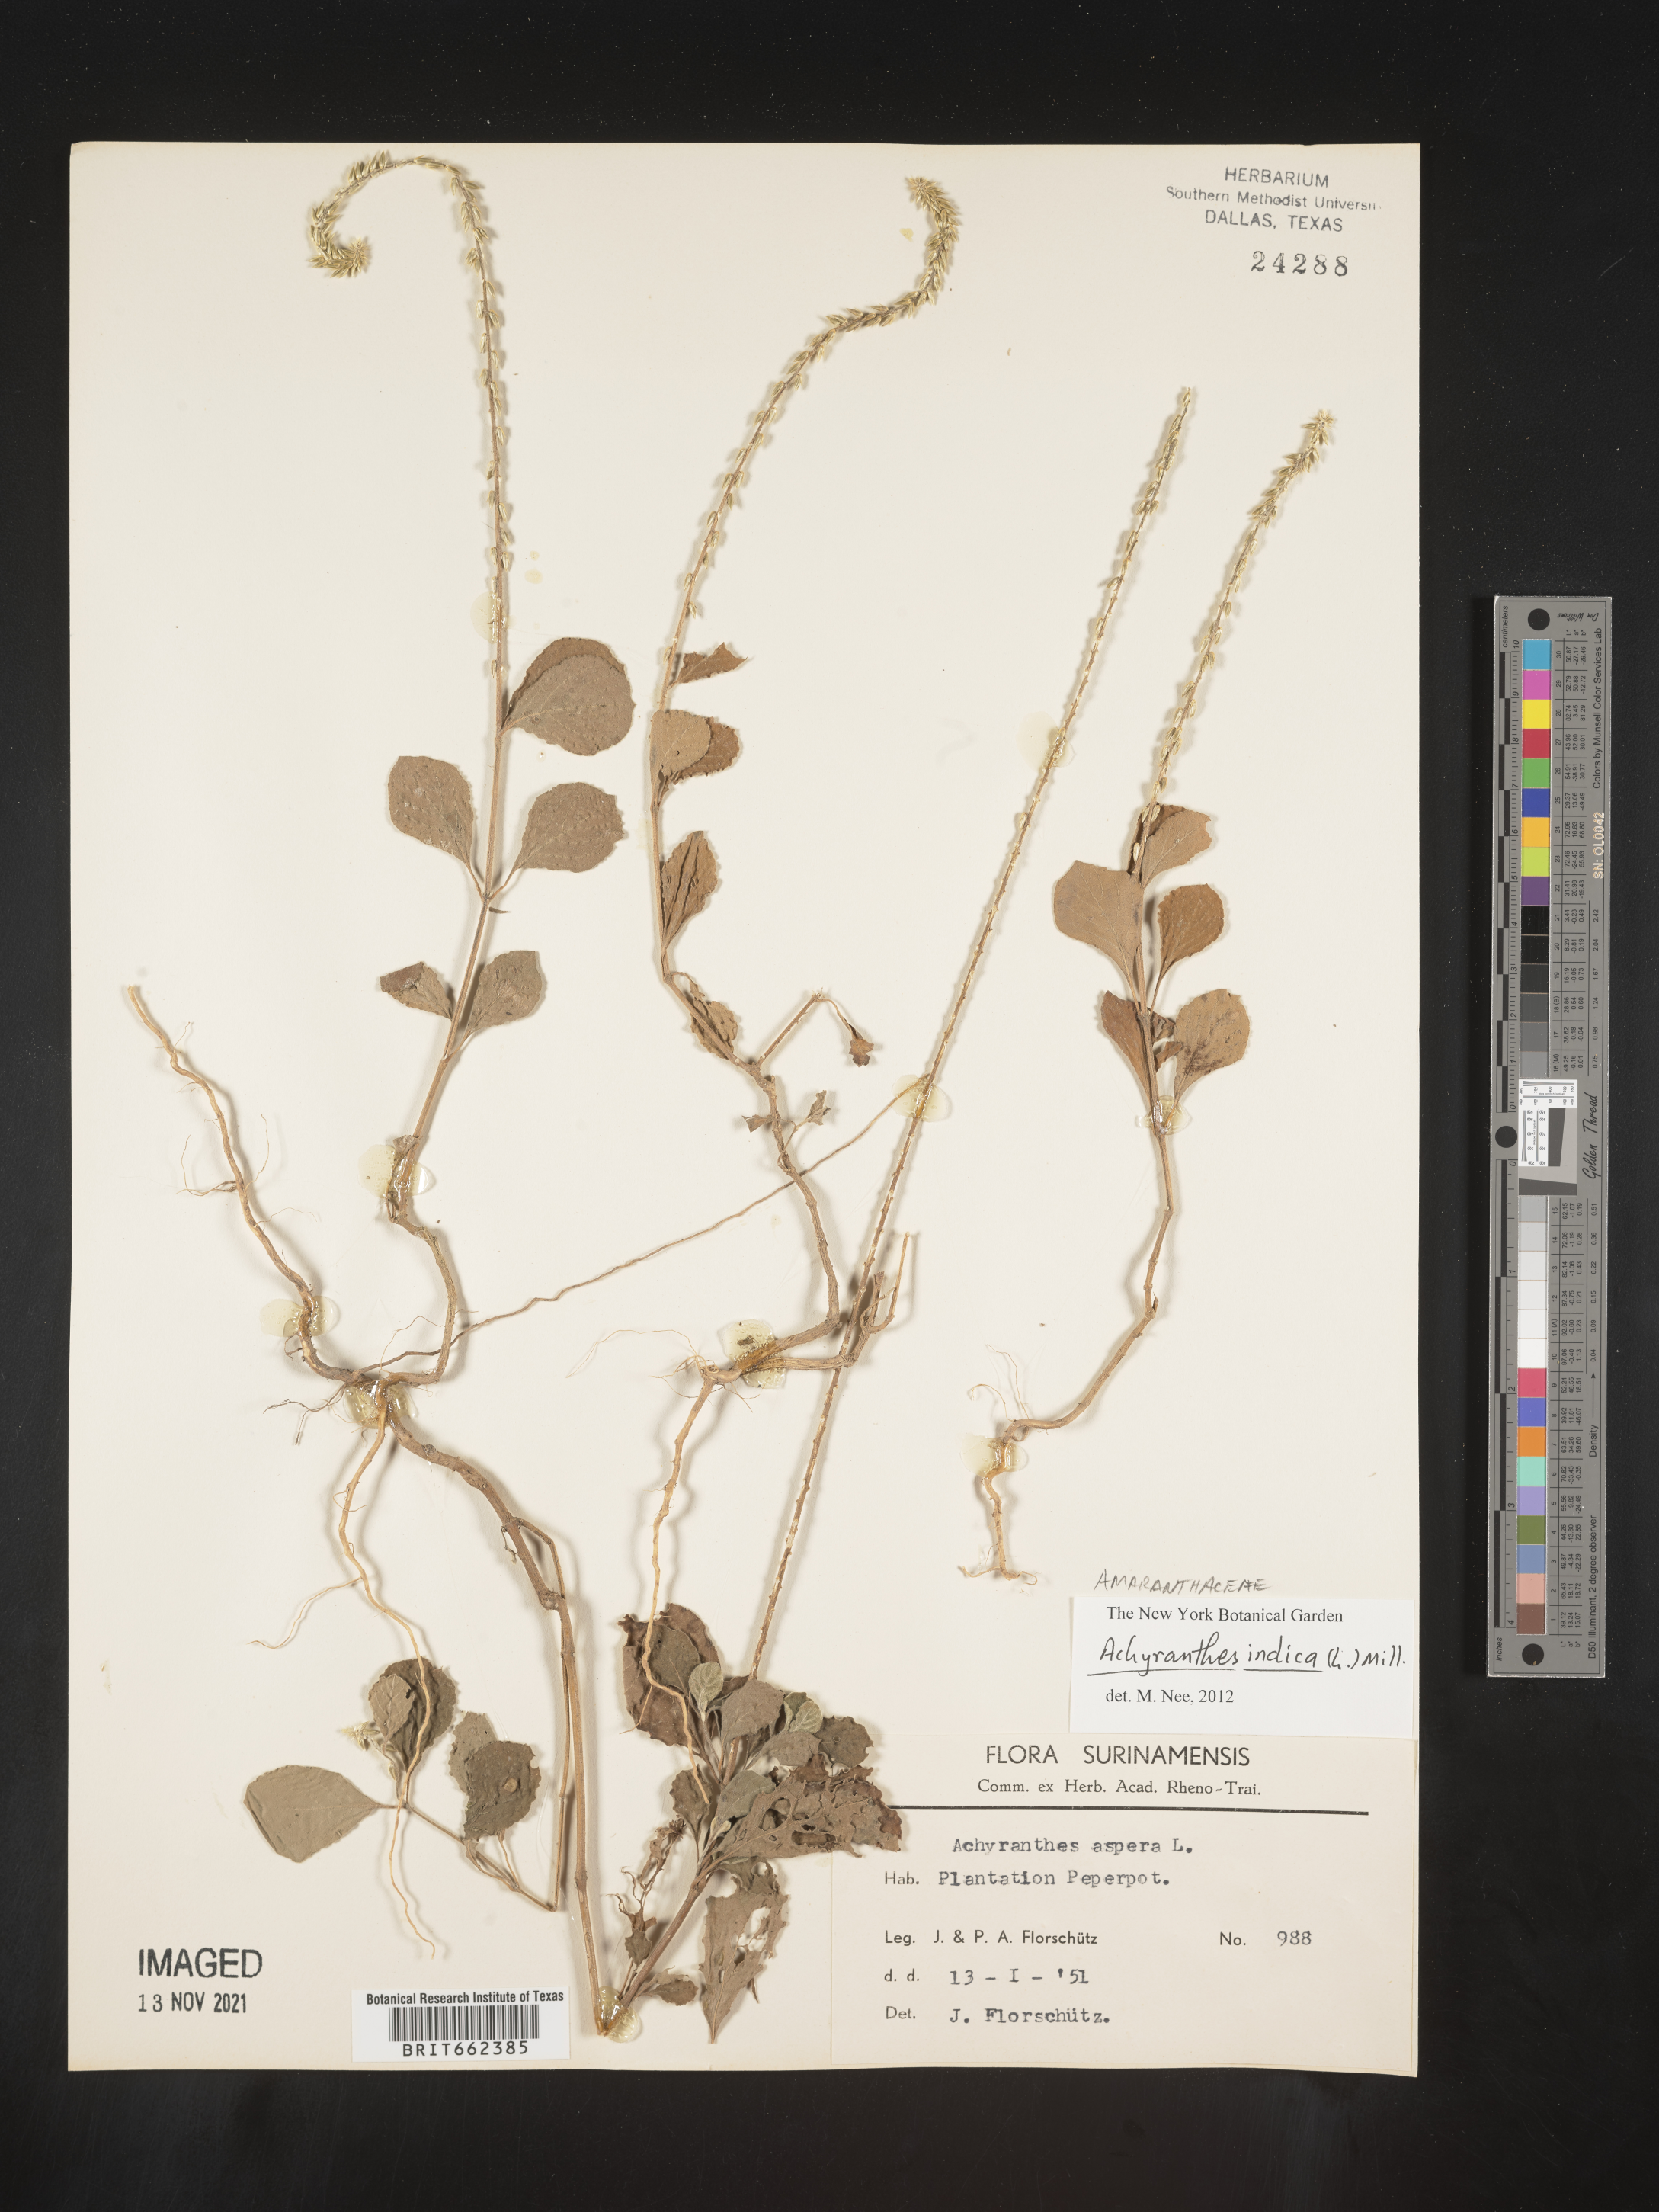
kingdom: Plantae
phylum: Tracheophyta
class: Magnoliopsida
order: Caryophyllales
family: Amaranthaceae
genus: Achyranthes
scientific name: Achyranthes
